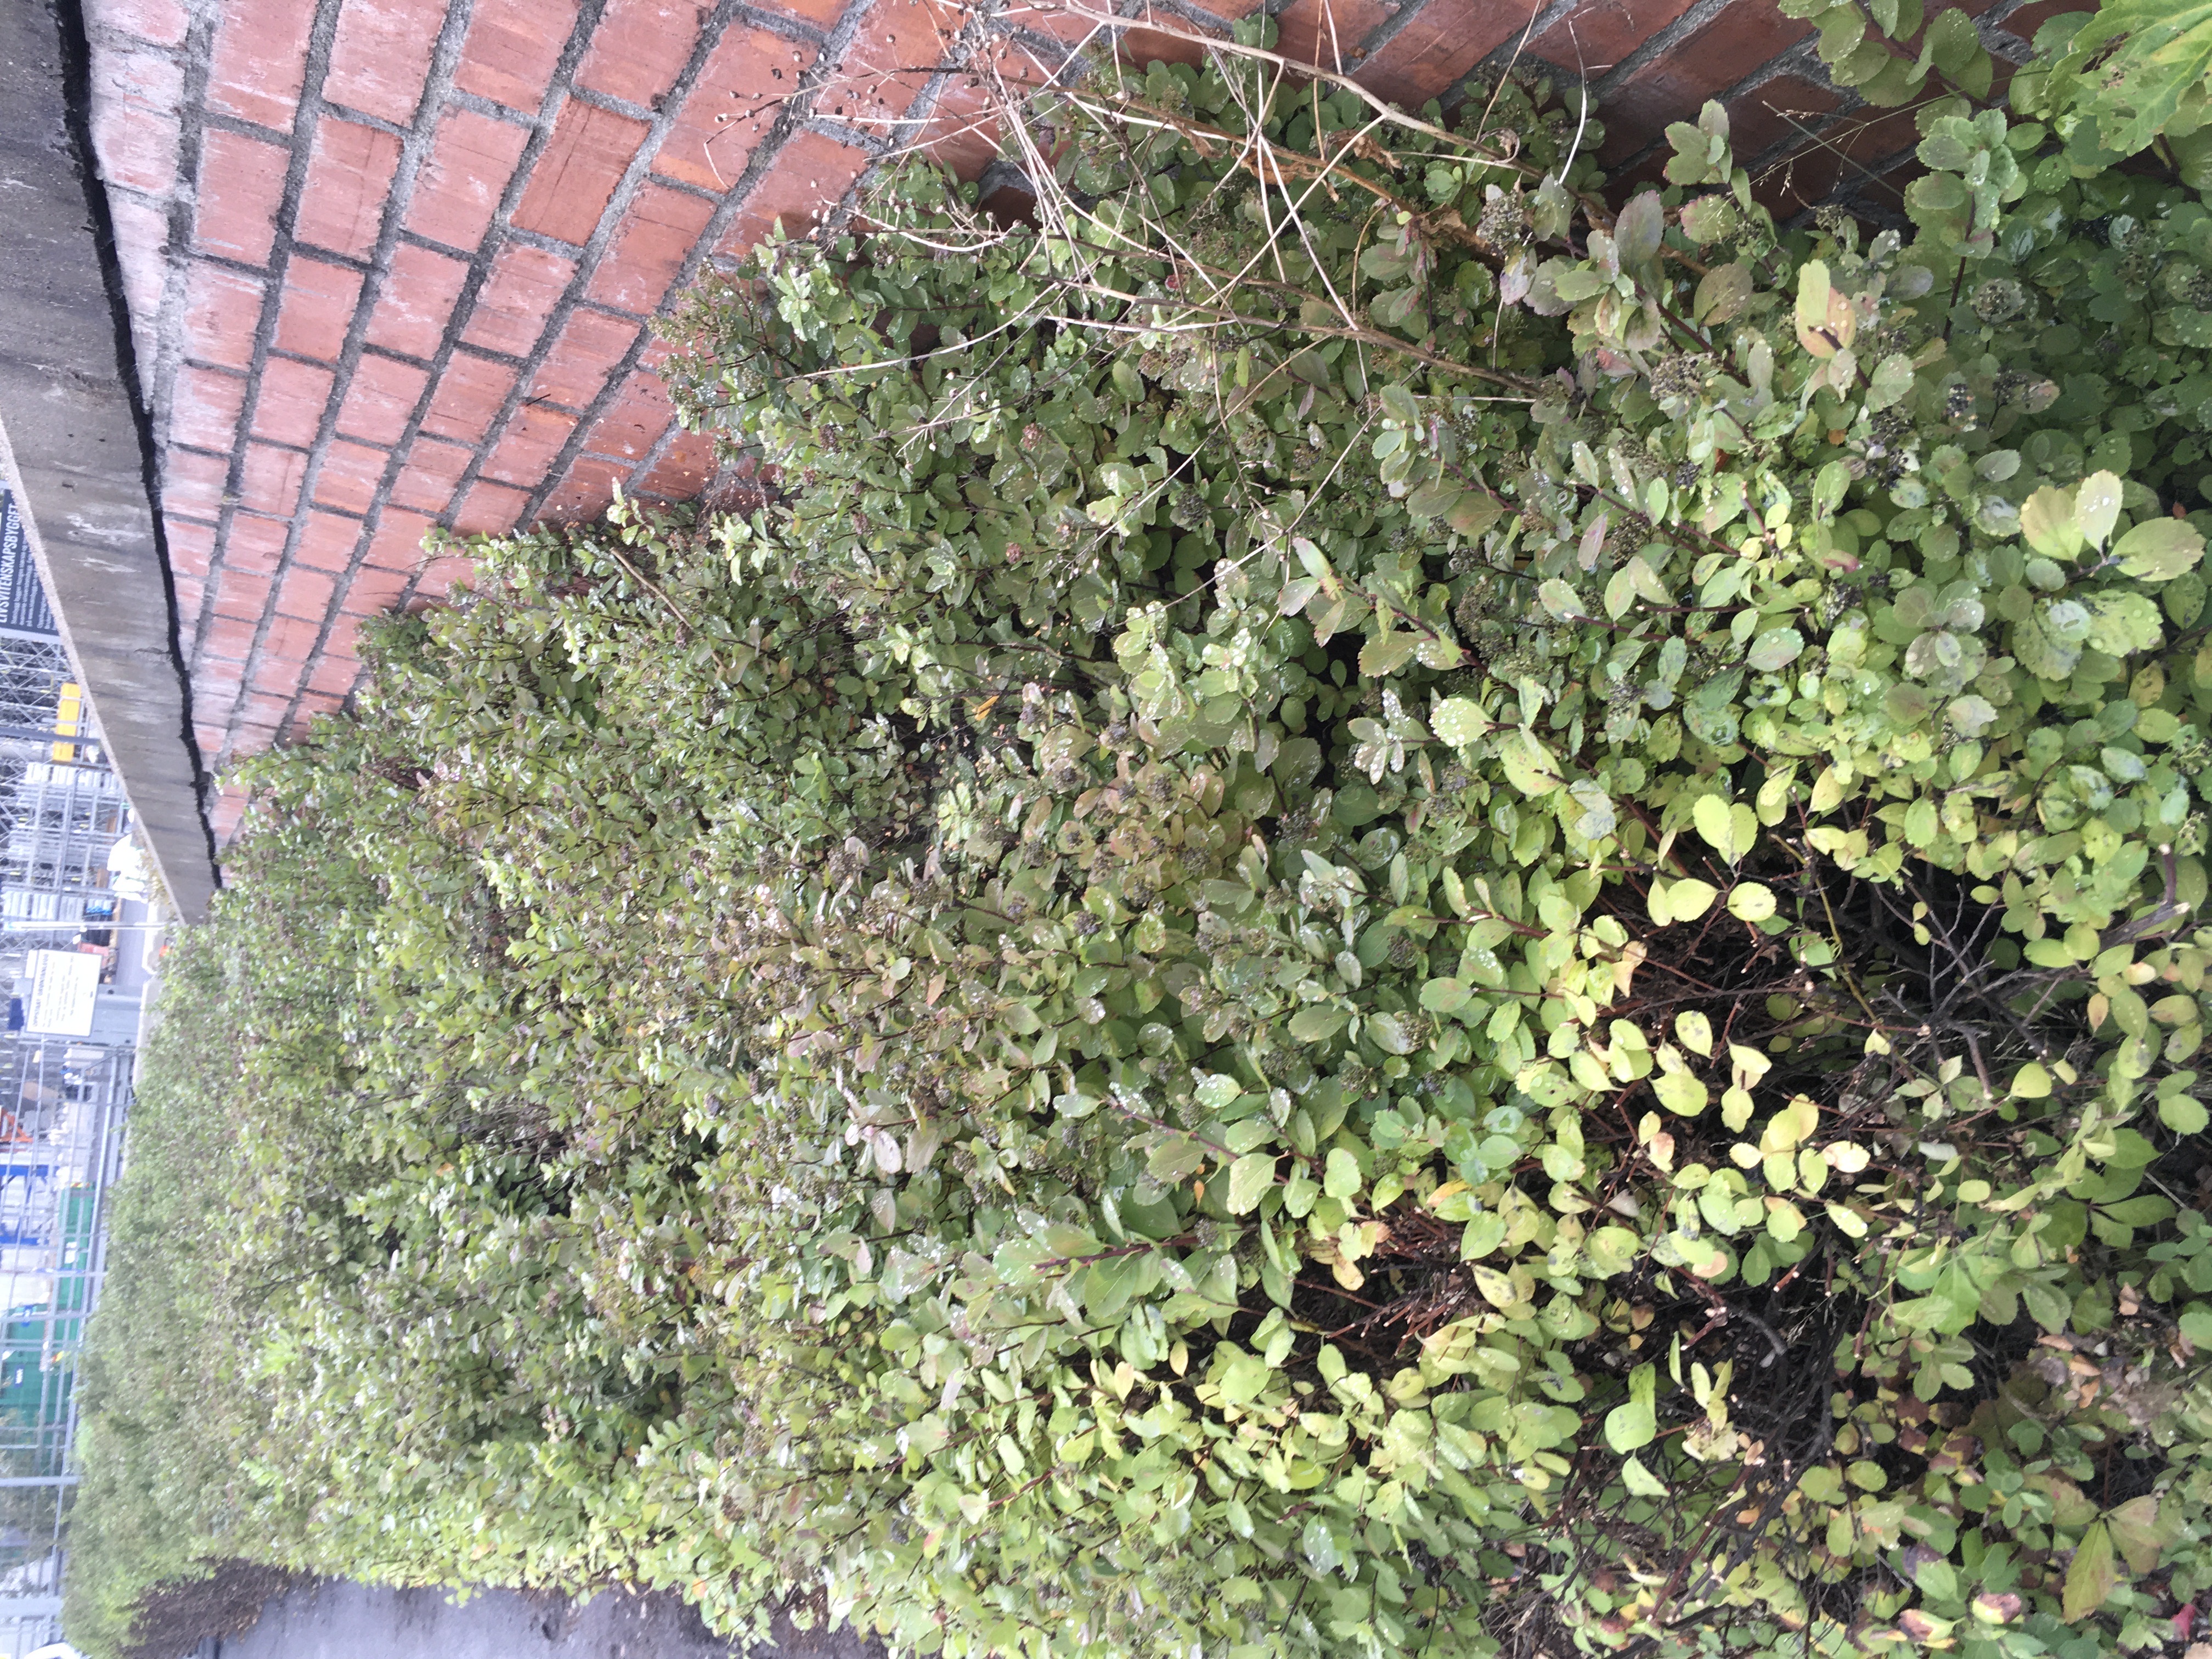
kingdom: Plantae
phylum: Tracheophyta
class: Magnoliopsida
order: Rosales
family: Rosaceae
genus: Spiraea
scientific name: Spiraea betulifolia
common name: bjørkebladspirea
